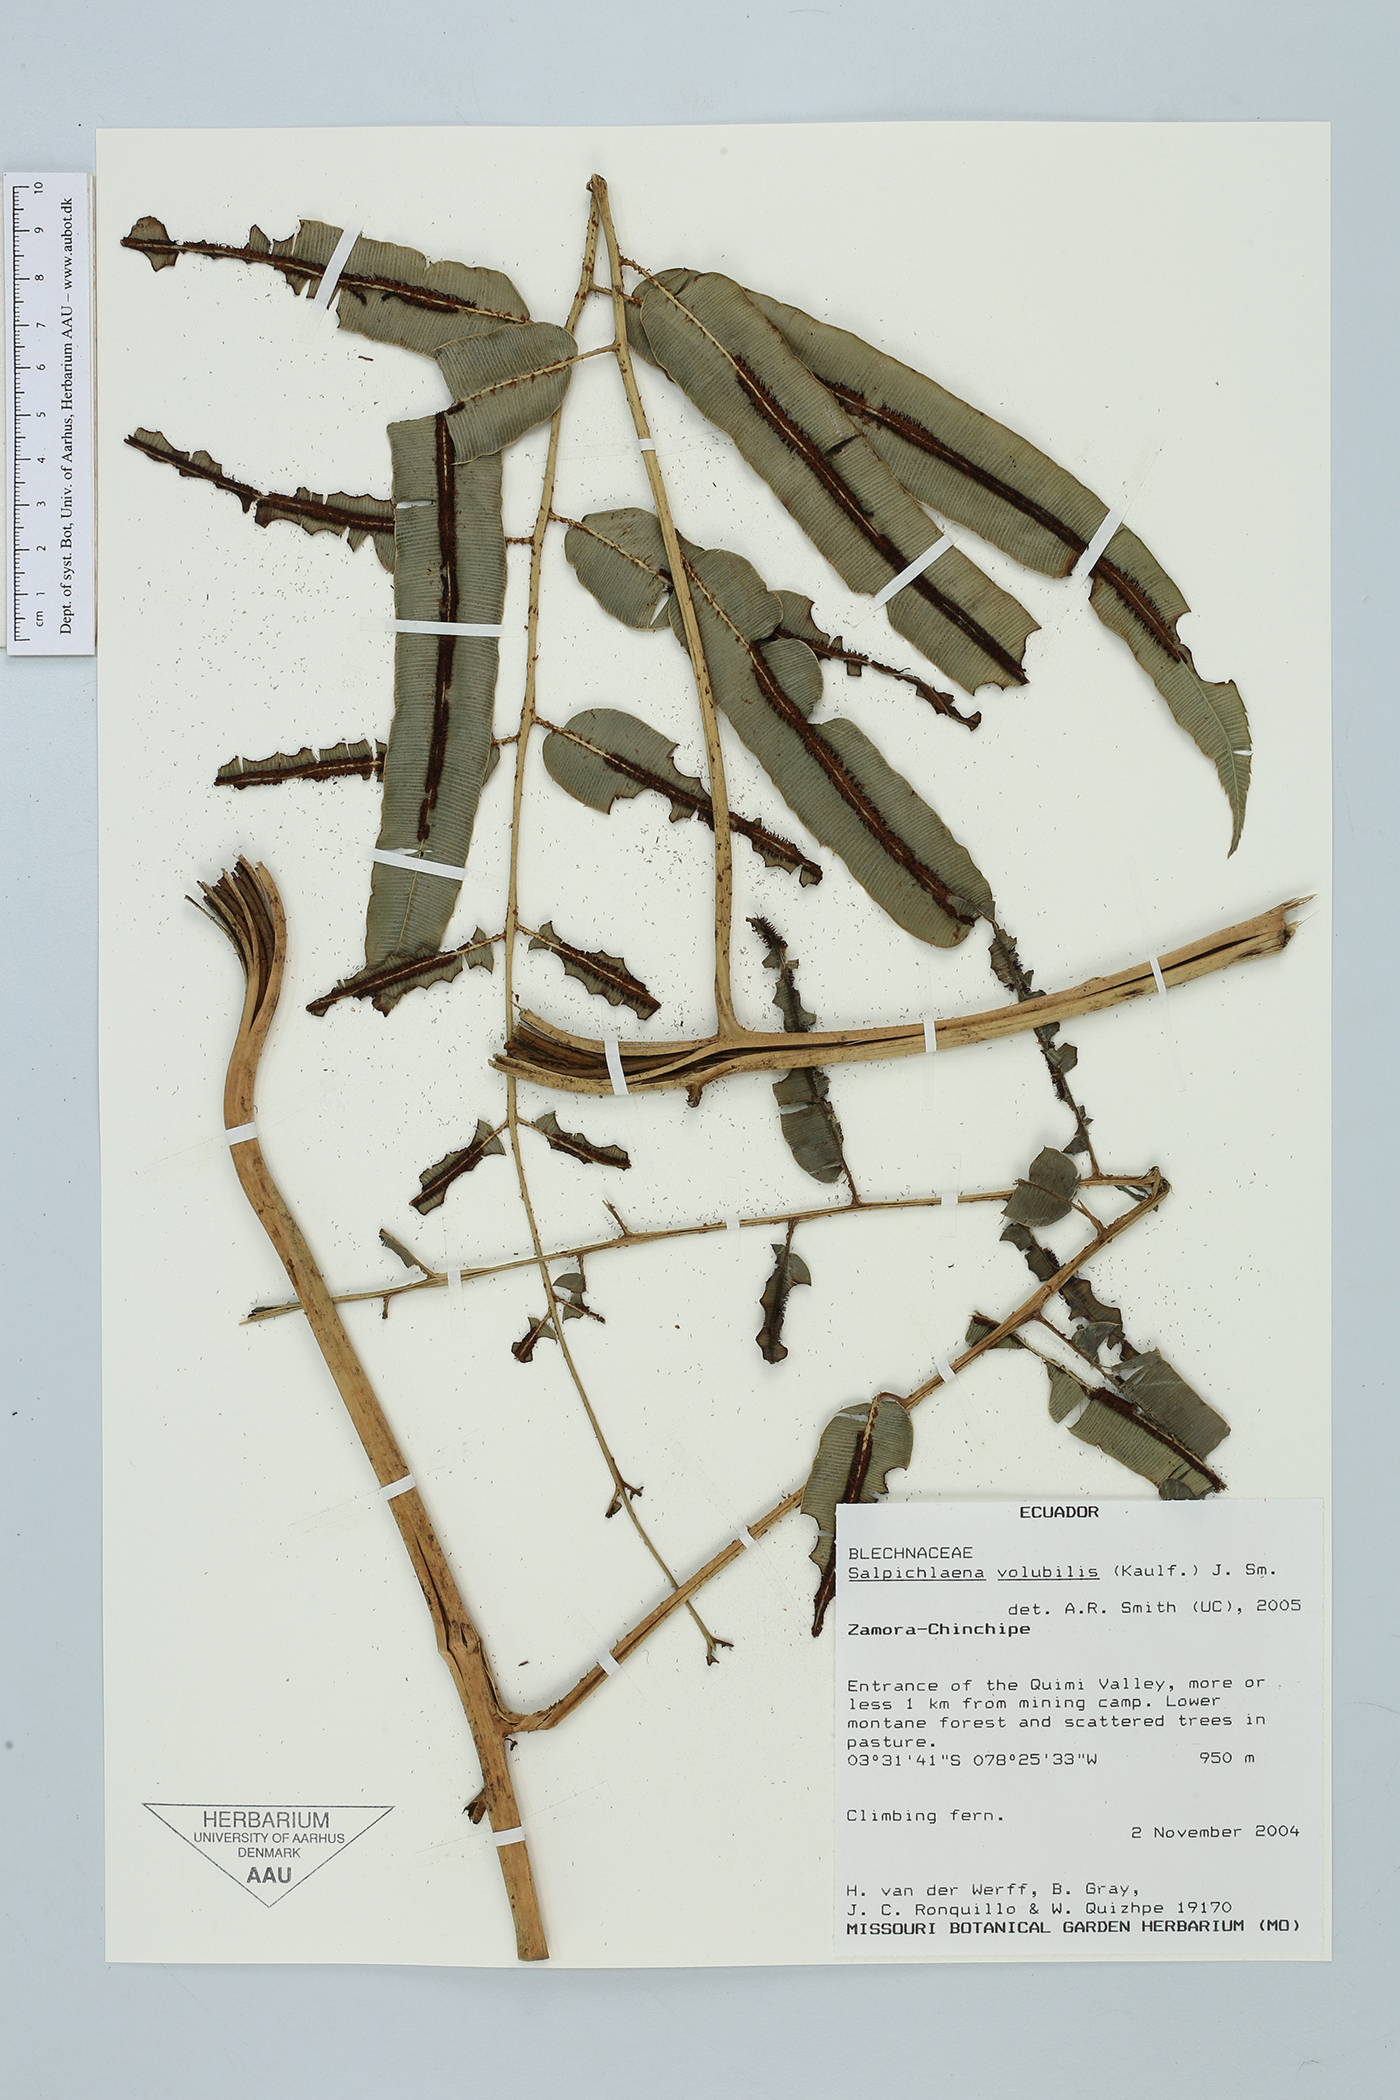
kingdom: Plantae
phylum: Tracheophyta
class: Polypodiopsida
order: Polypodiales
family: Blechnaceae
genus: Salpichlaena
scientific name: Salpichlaena volubilis
